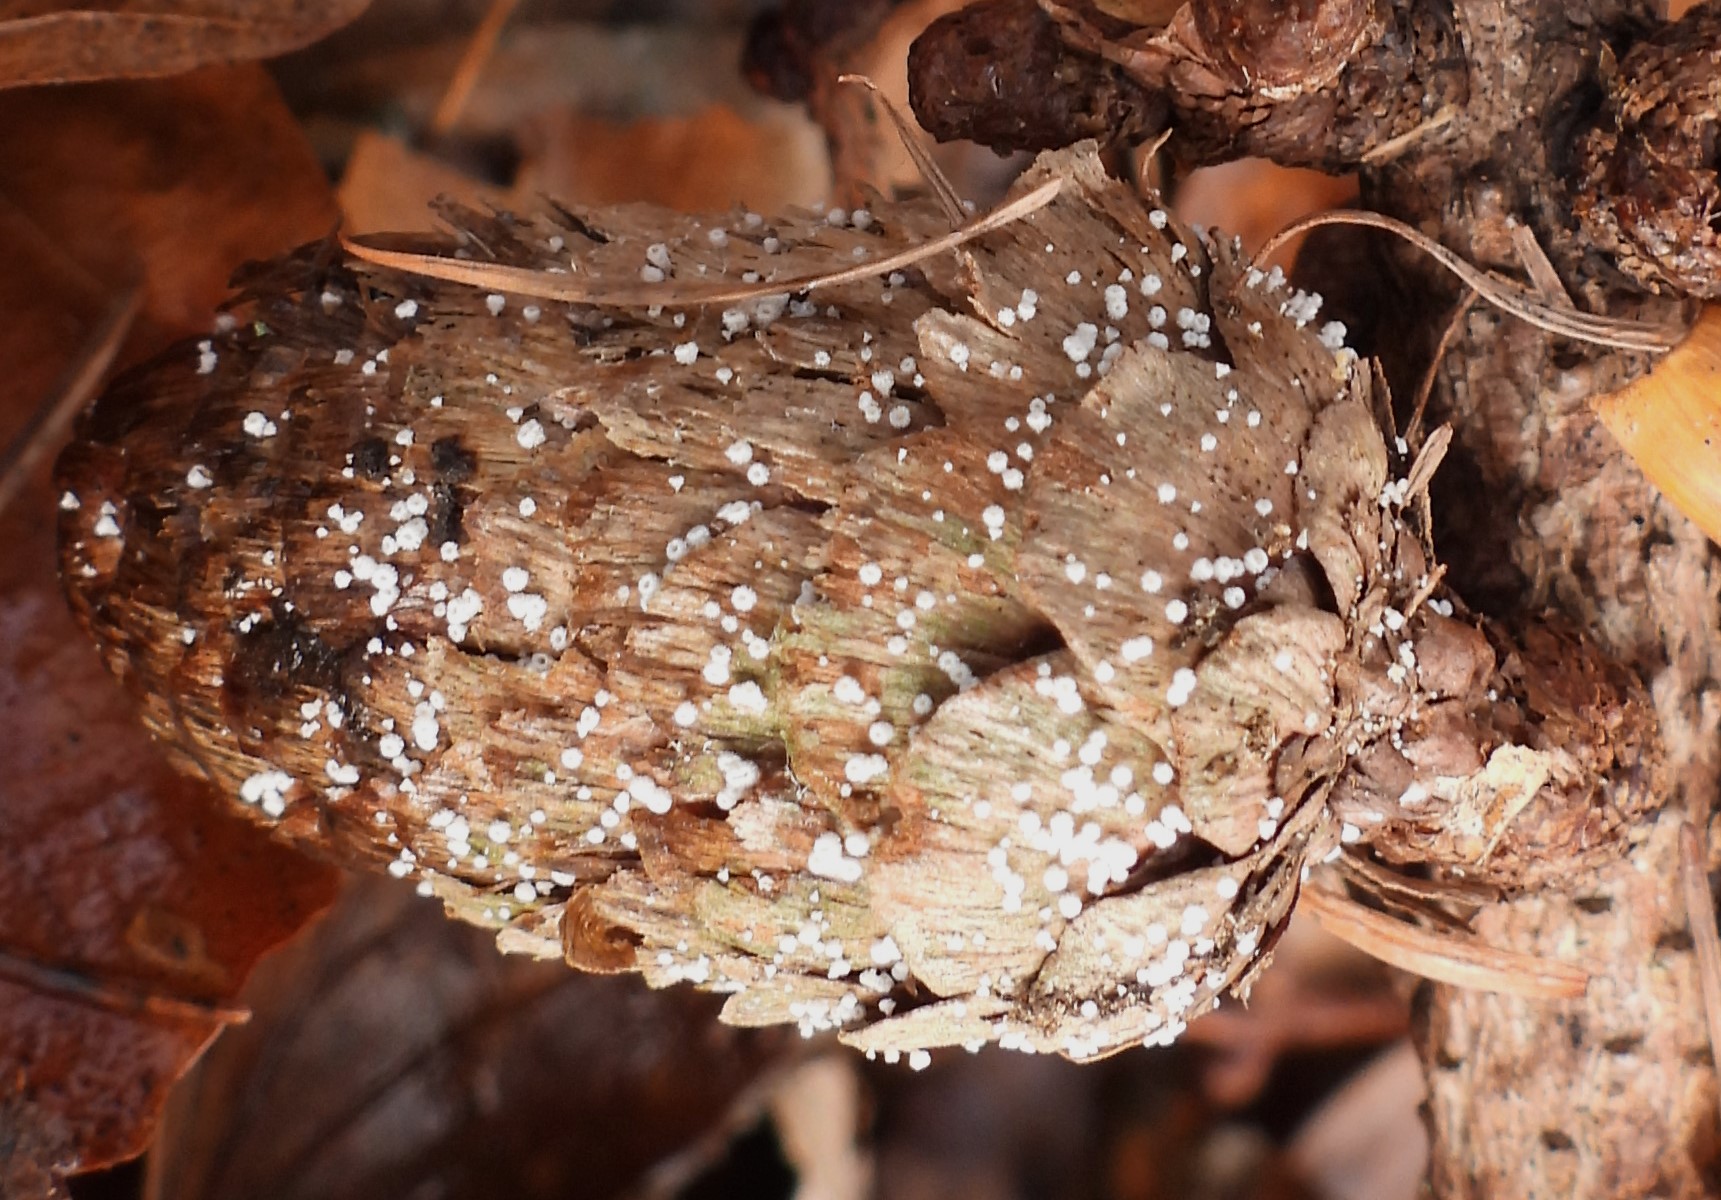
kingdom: Fungi
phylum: Ascomycota
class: Leotiomycetes
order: Helotiales
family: Lachnaceae
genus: Lachnum
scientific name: Lachnum virgineum
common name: jomfru-frynseskive
